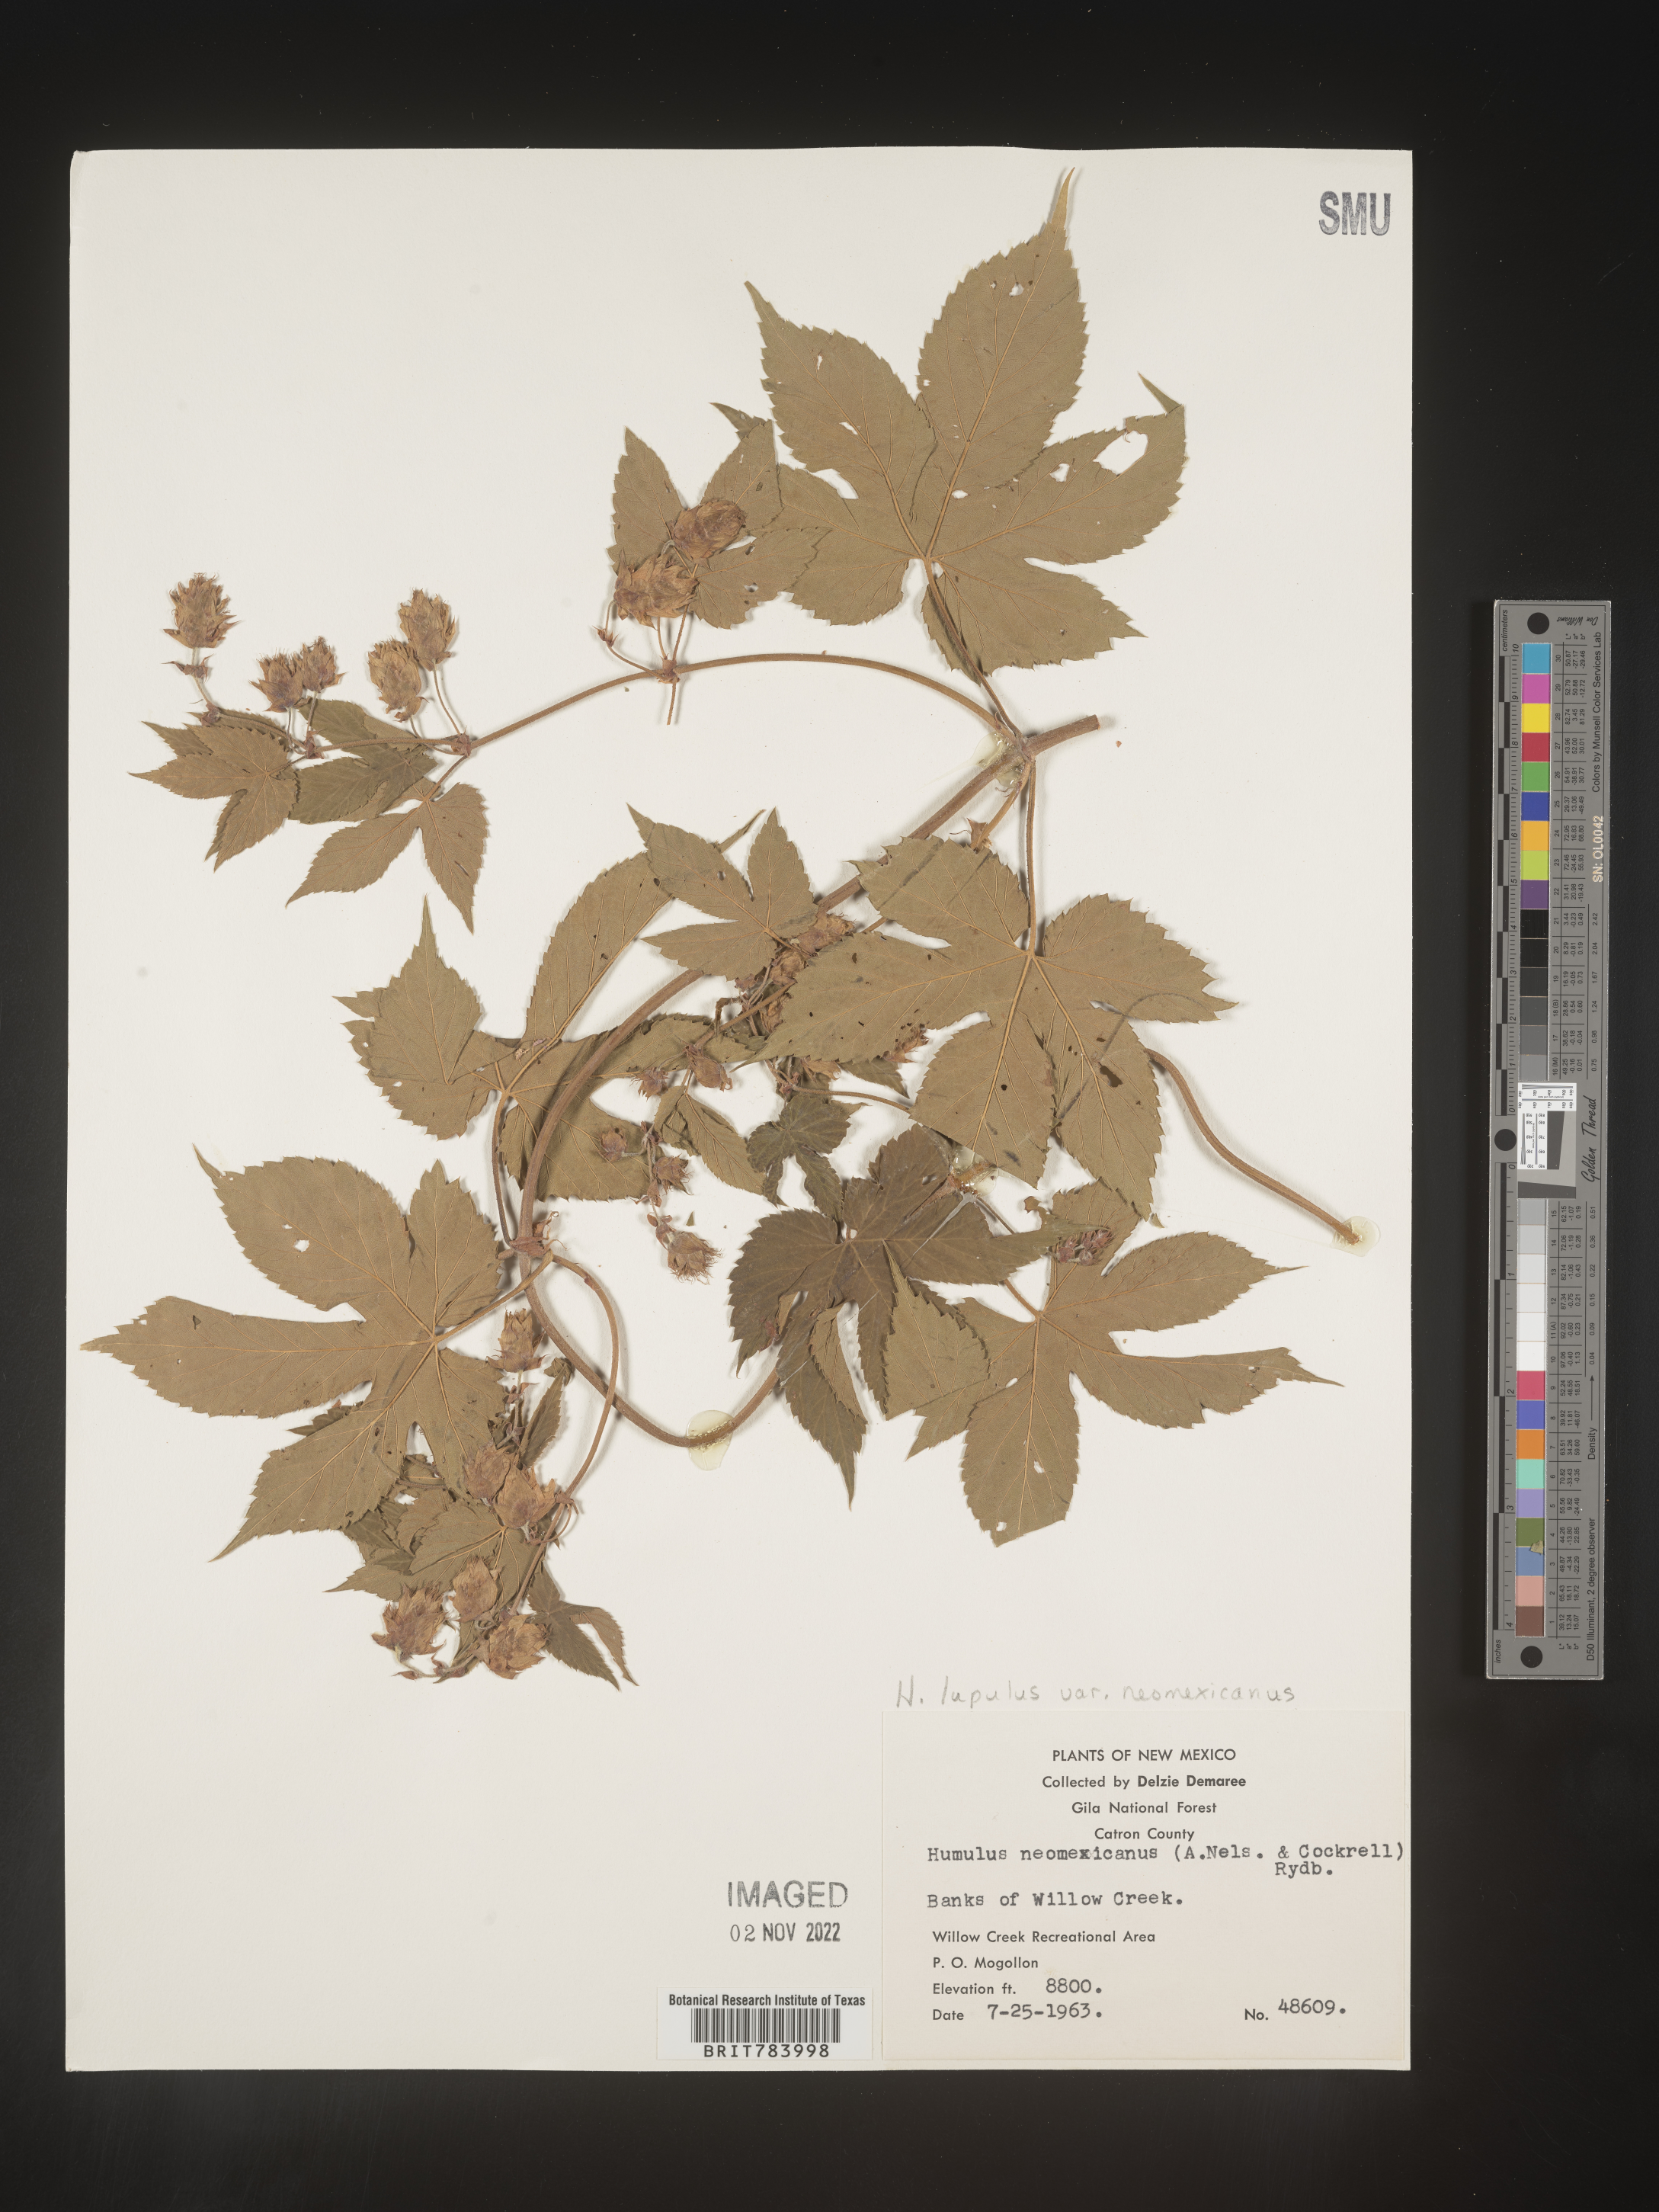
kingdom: Plantae
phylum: Tracheophyta
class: Magnoliopsida
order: Rosales
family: Cannabaceae
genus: Humulus
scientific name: Humulus neomexicanus
